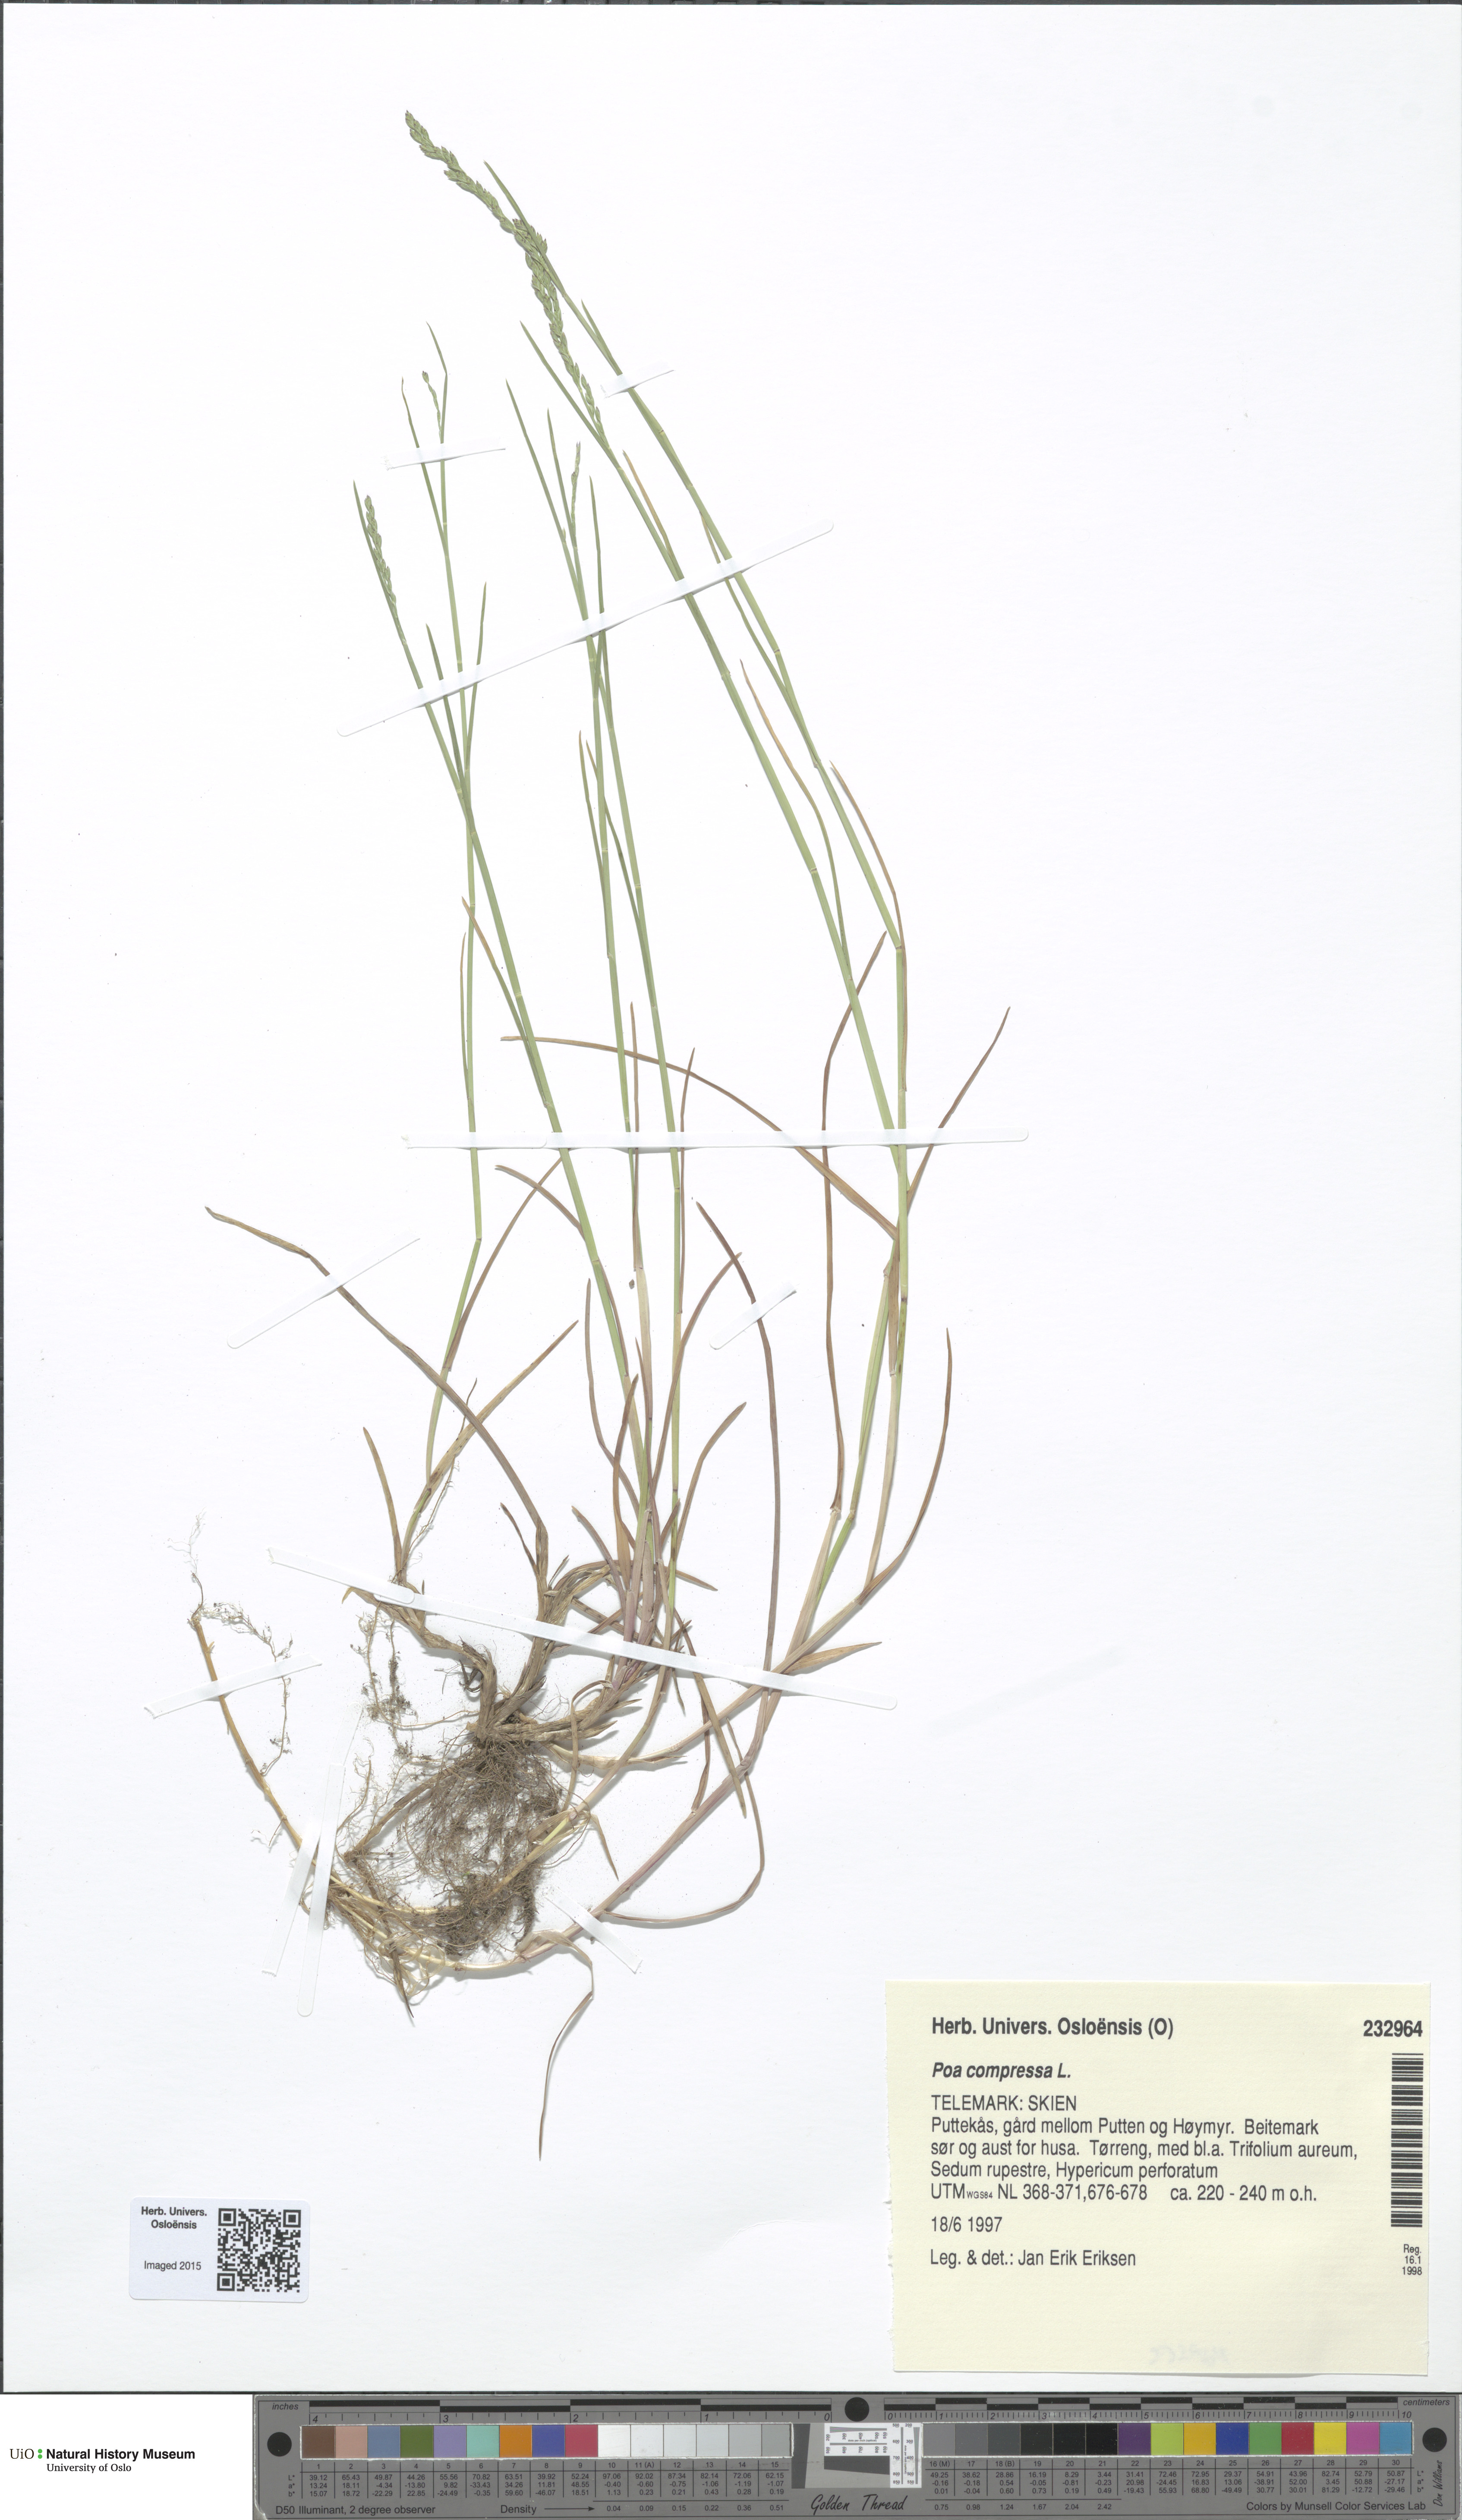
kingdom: Plantae
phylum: Tracheophyta
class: Liliopsida
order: Poales
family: Poaceae
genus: Poa
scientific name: Poa compressa
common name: Canada bluegrass
